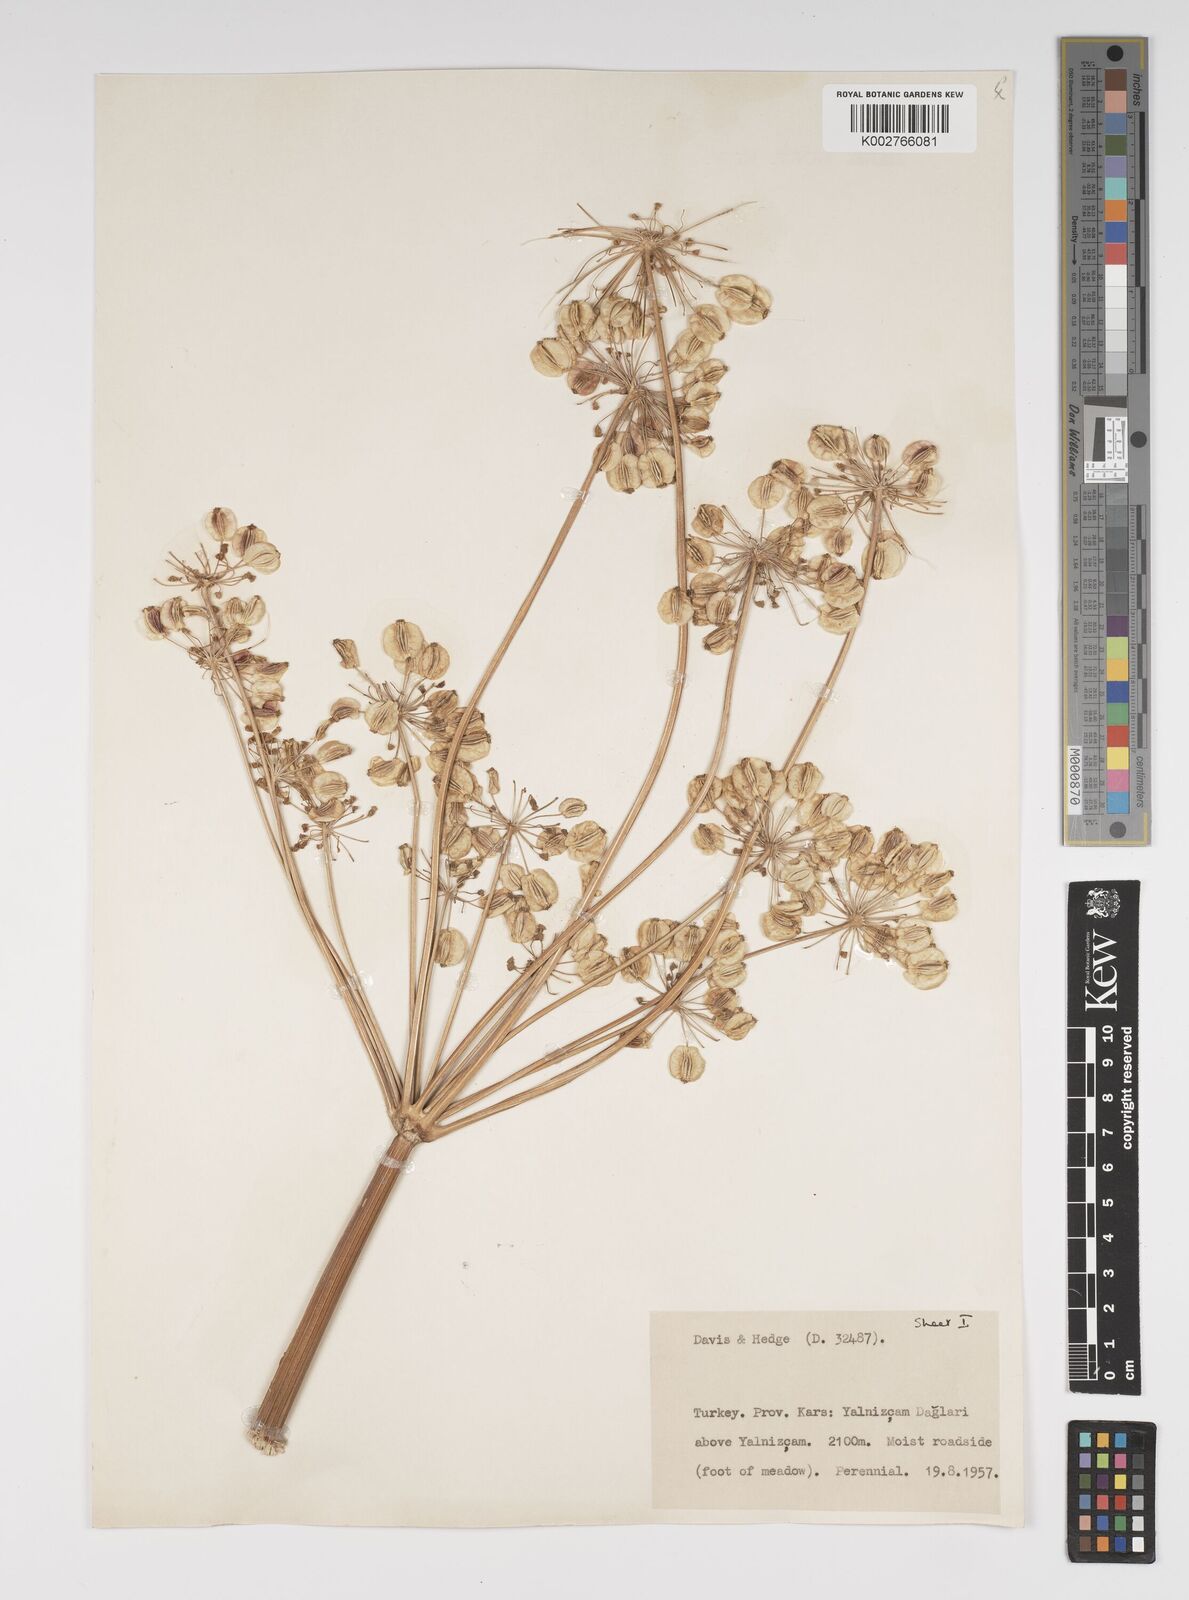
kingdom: Plantae
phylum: Tracheophyta
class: Magnoliopsida
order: Apiales
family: Apiaceae
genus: Xanthogalum
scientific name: Xanthogalum purpurascens
